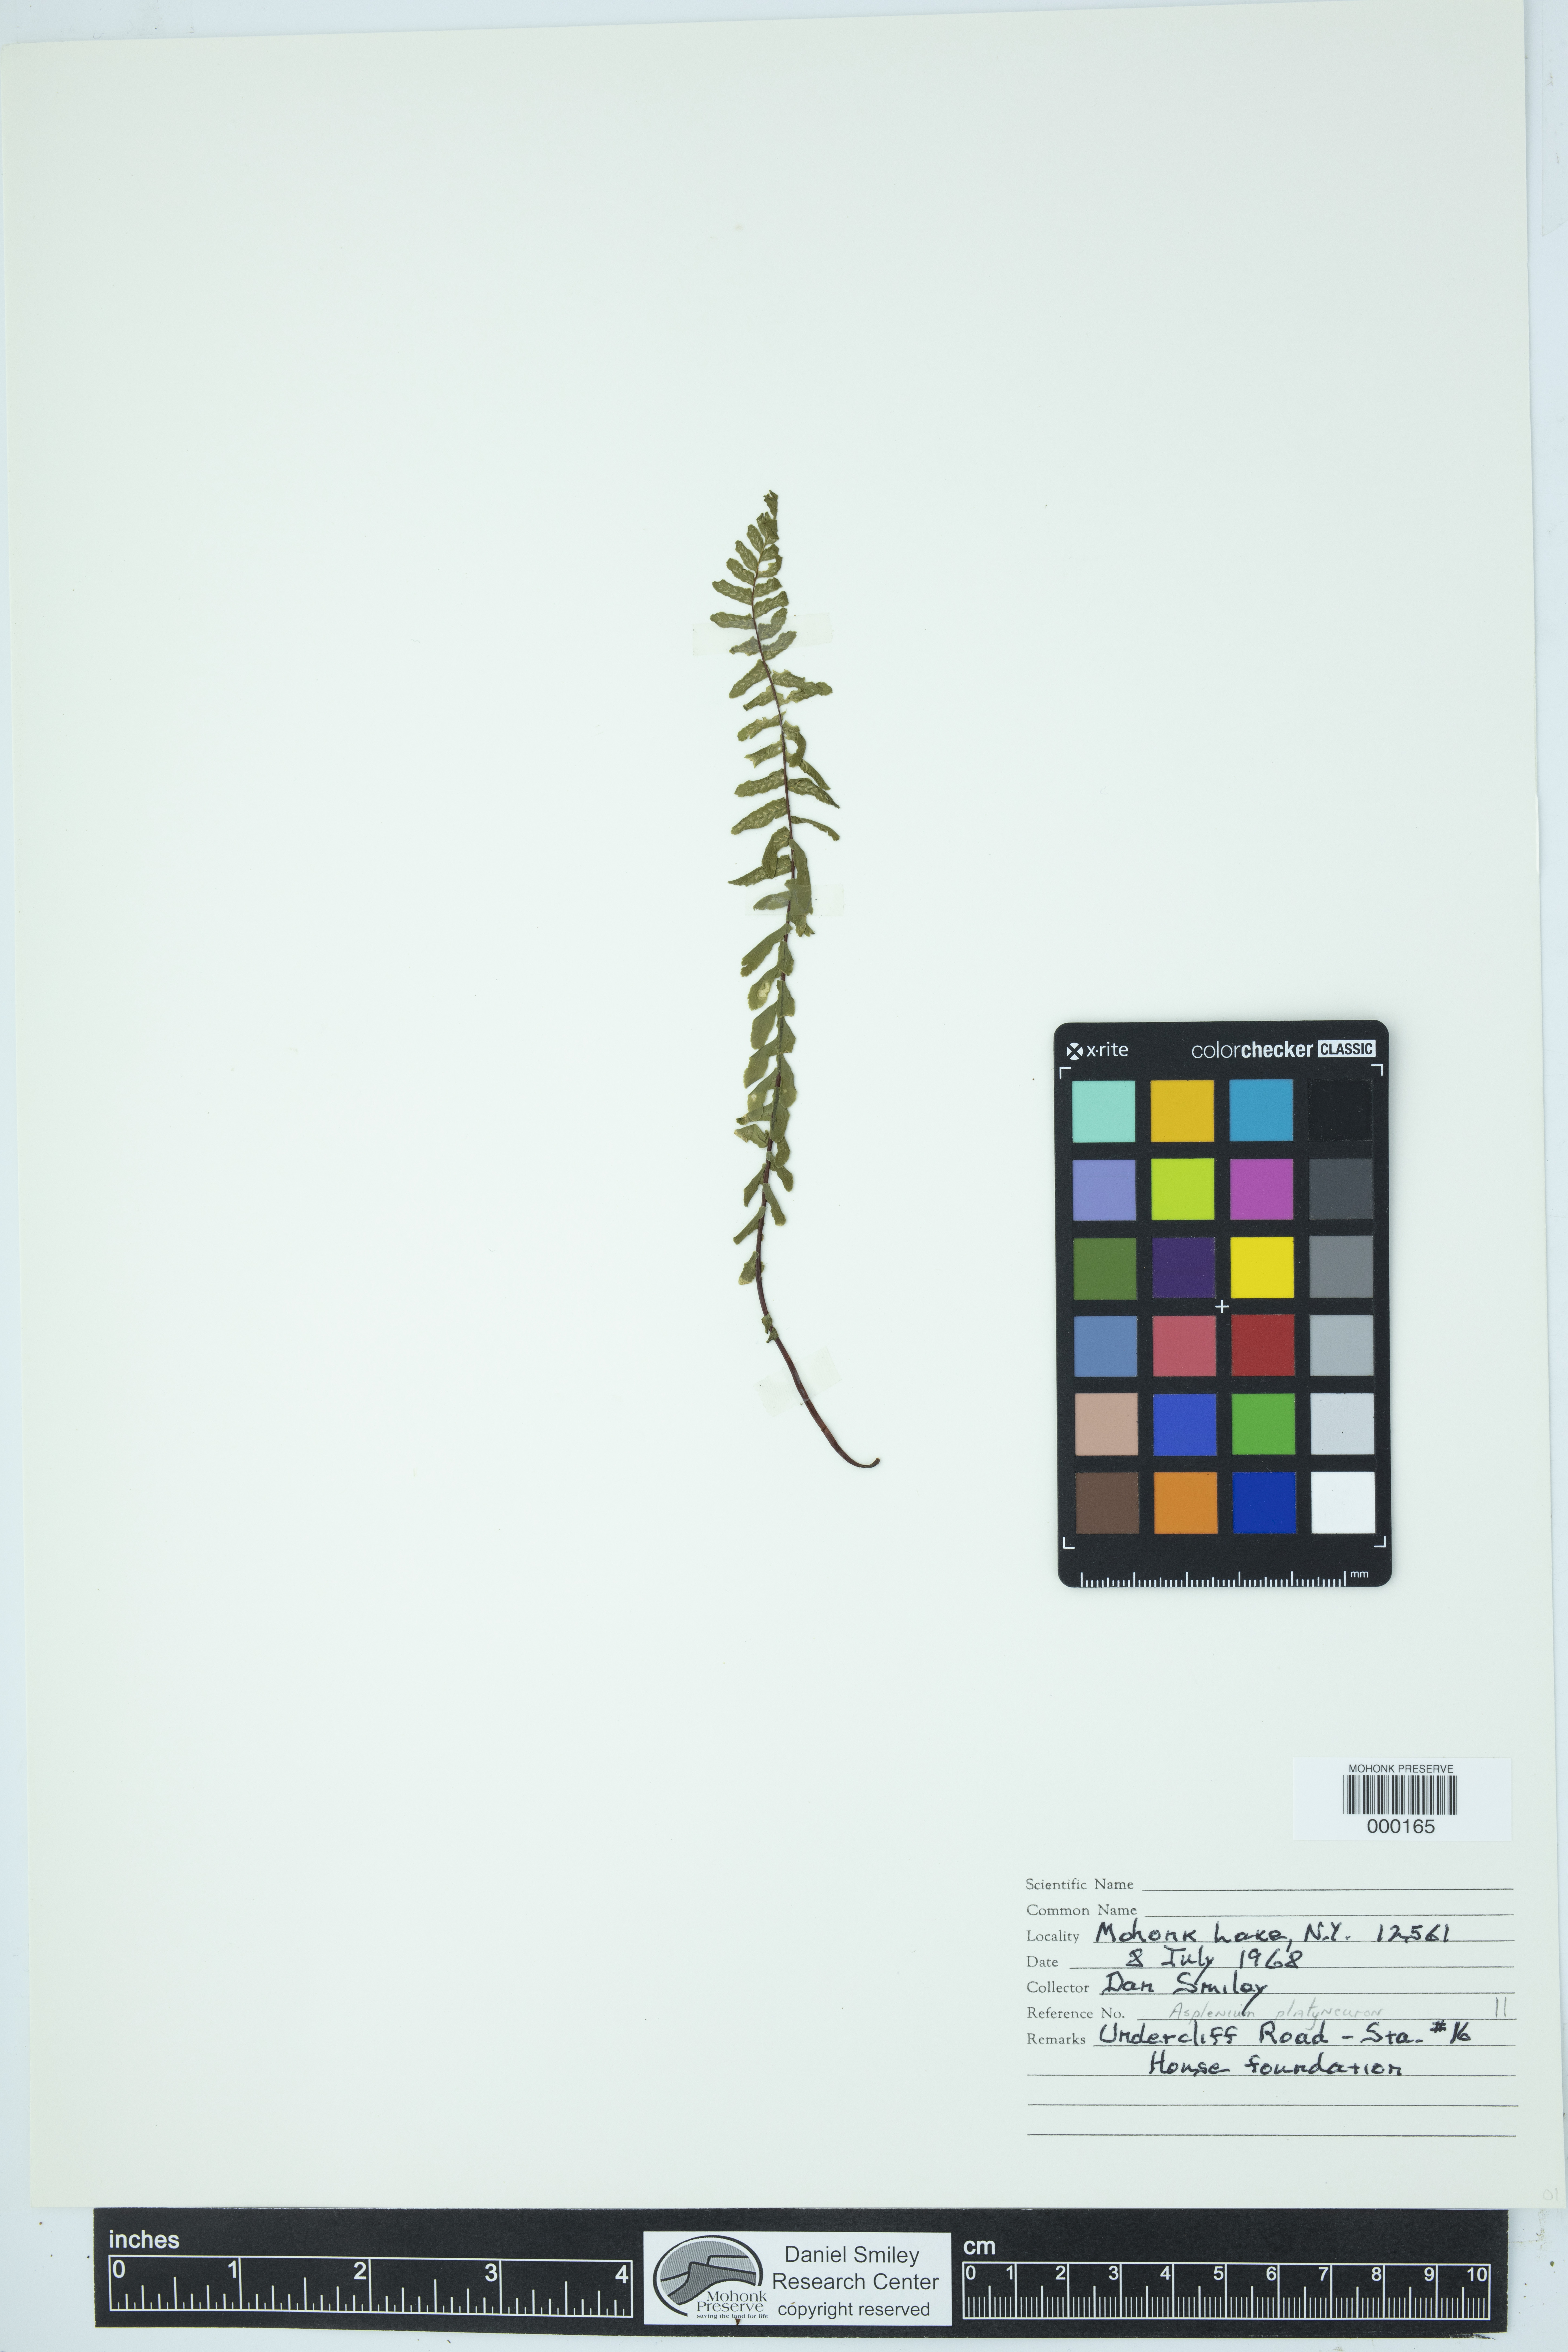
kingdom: Plantae
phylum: Tracheophyta
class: Polypodiopsida
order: Polypodiales
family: Aspleniaceae
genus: Asplenium
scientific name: Asplenium platyneuron
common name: Ebony spleenwort
